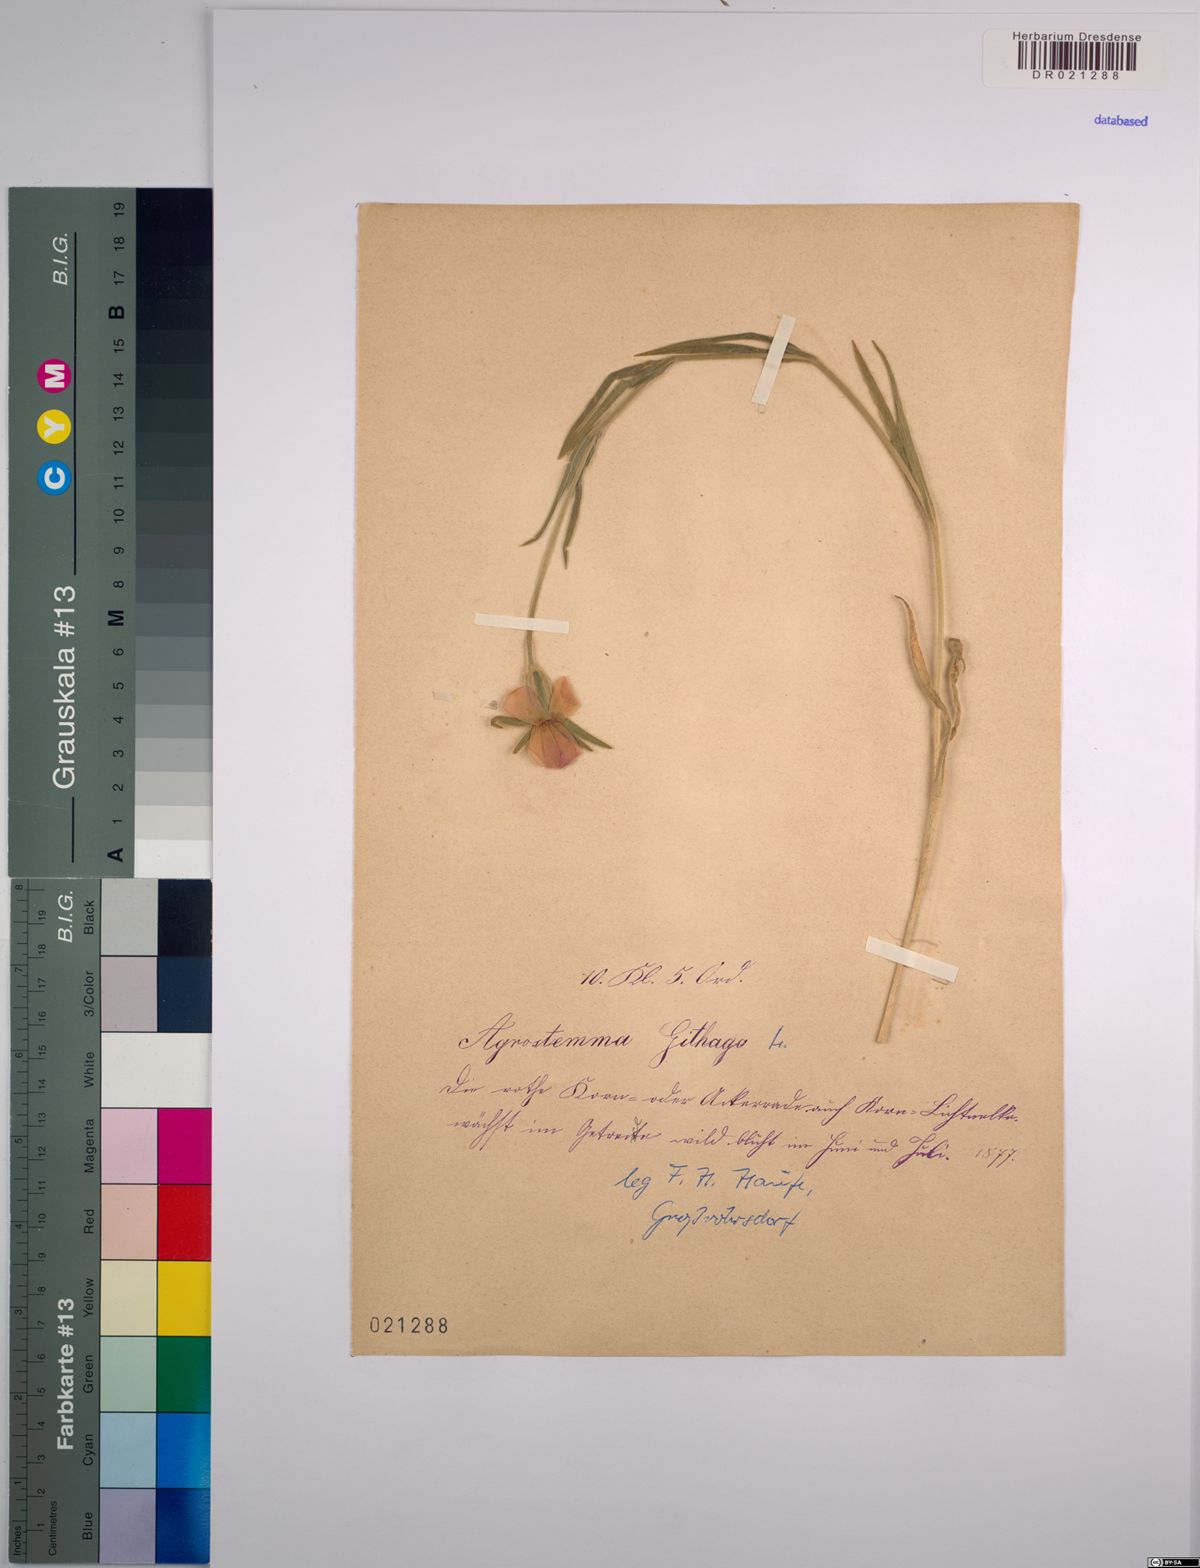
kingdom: Plantae
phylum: Tracheophyta
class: Magnoliopsida
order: Caryophyllales
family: Caryophyllaceae
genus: Agrostemma
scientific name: Agrostemma githago
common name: Common corncockle
